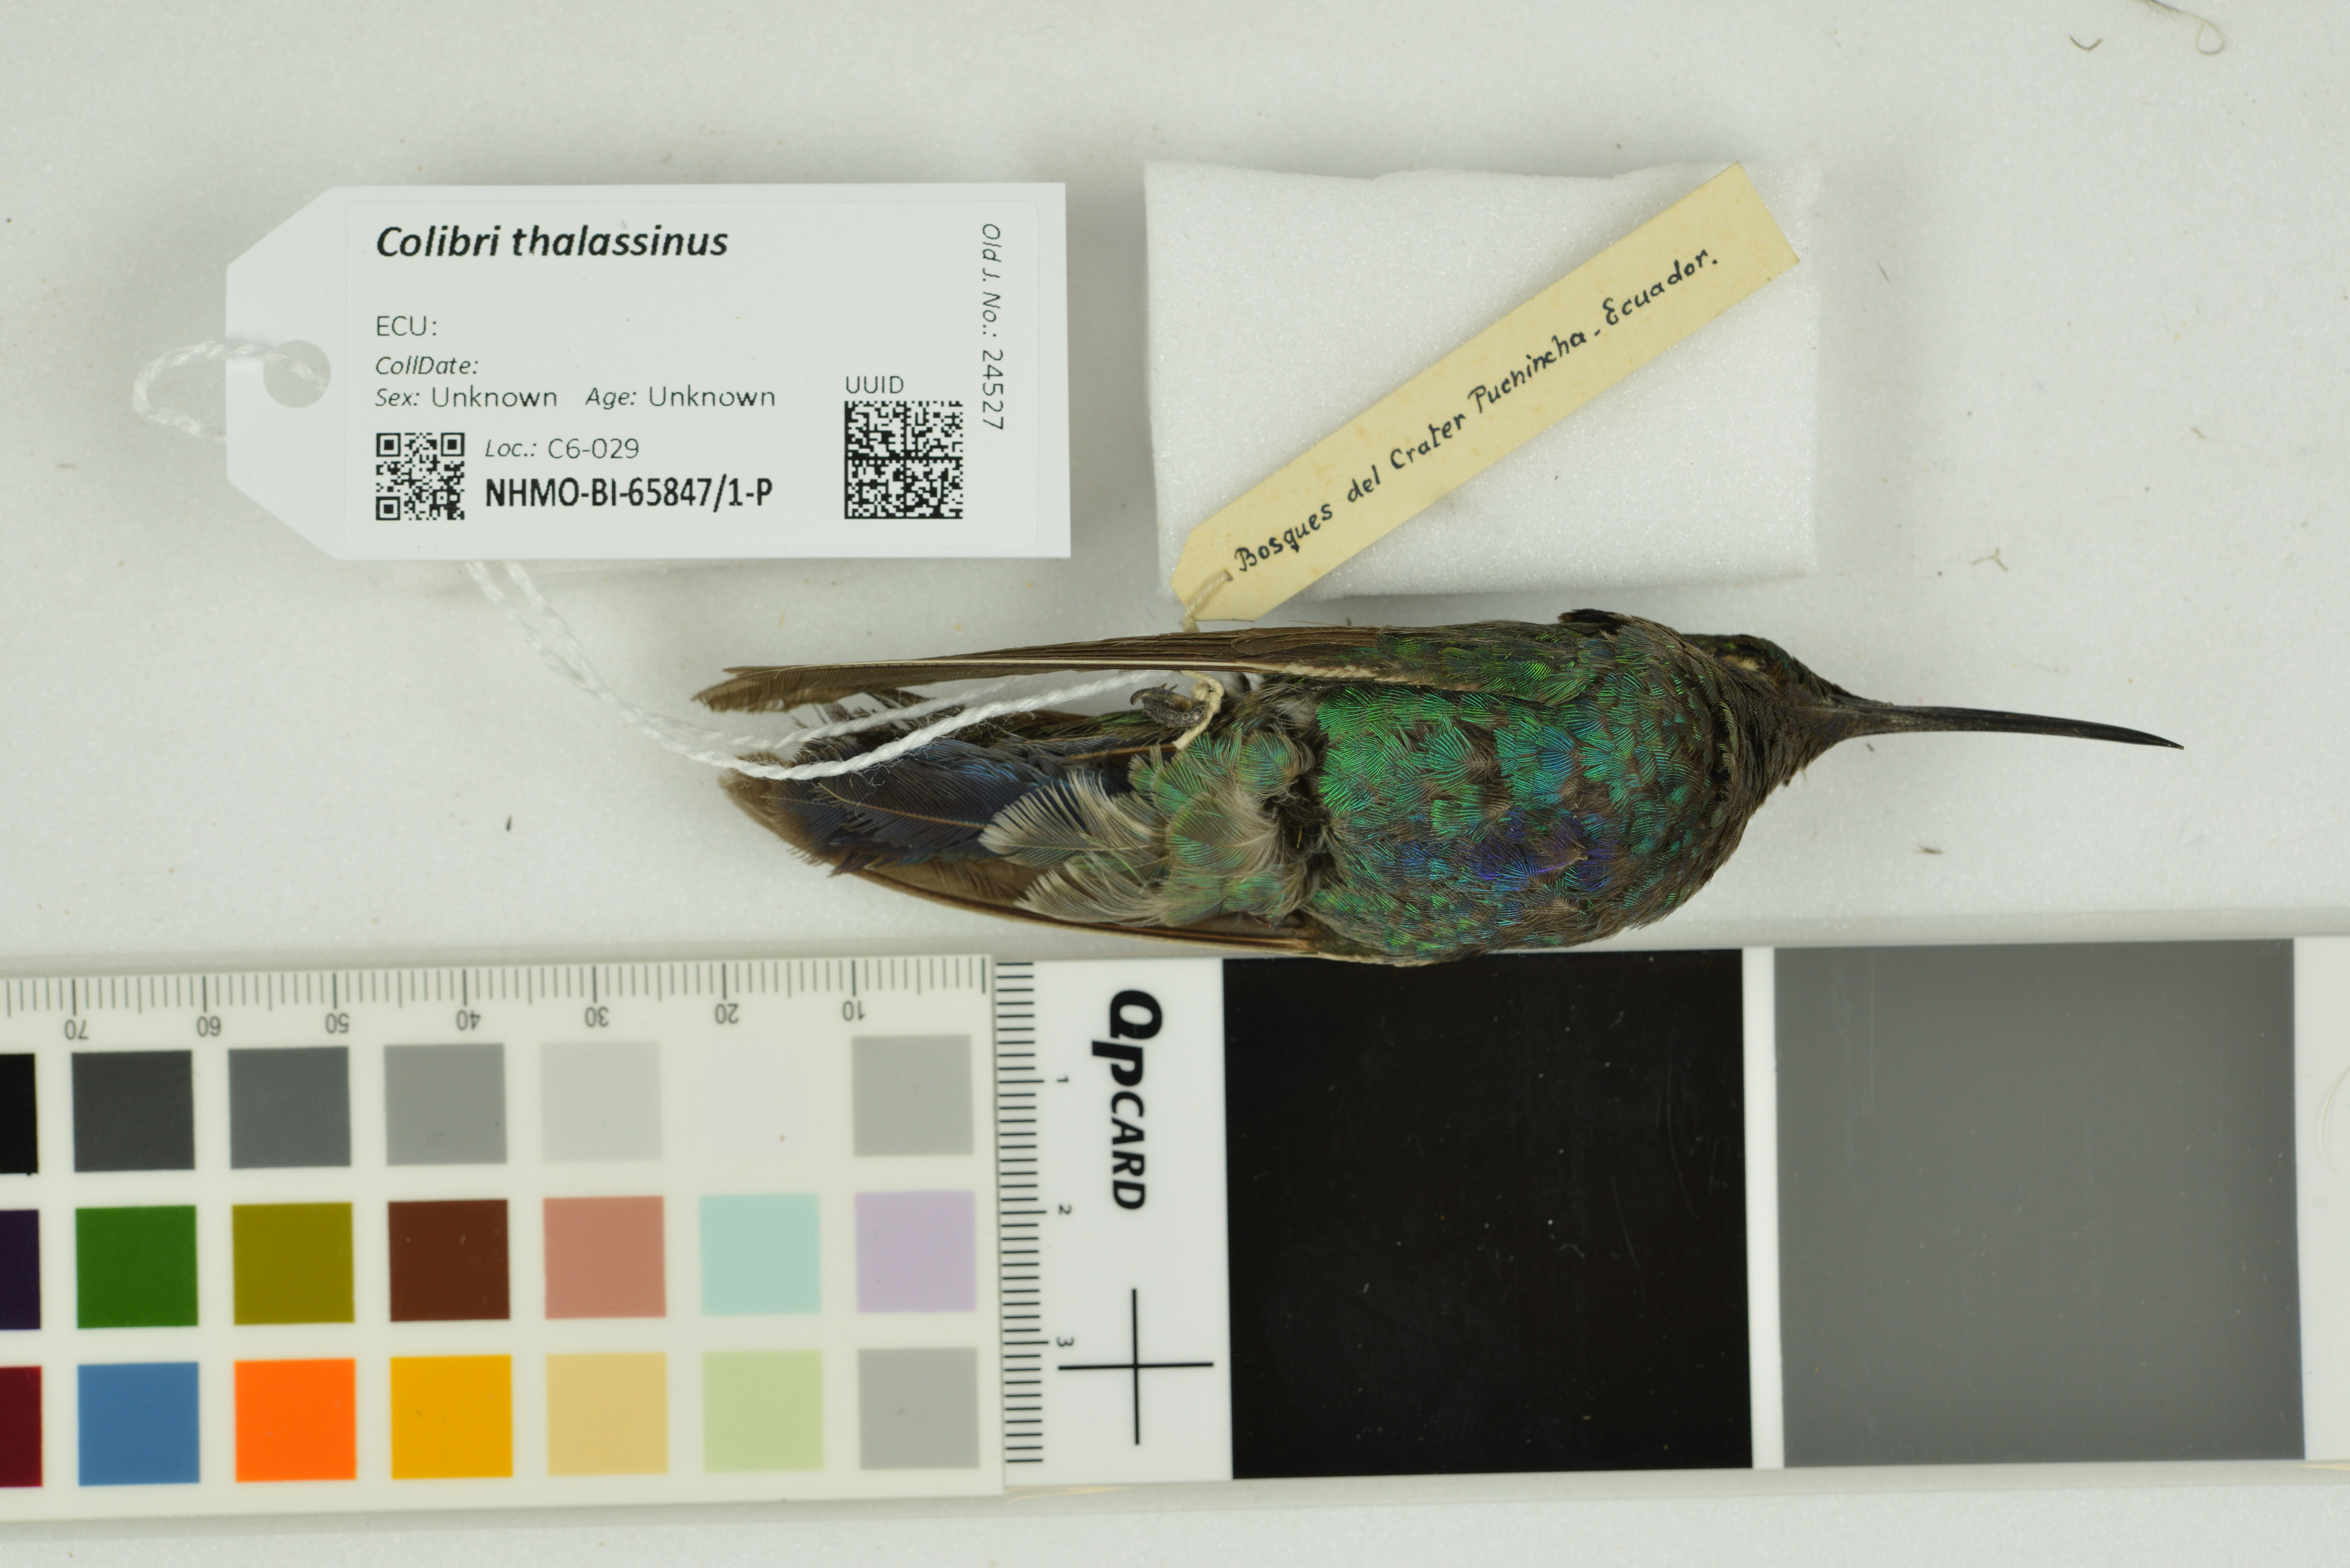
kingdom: Animalia
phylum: Chordata
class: Aves
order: Apodiformes
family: Trochilidae
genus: Colibri
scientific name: Colibri thalassinus
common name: Green violetear
